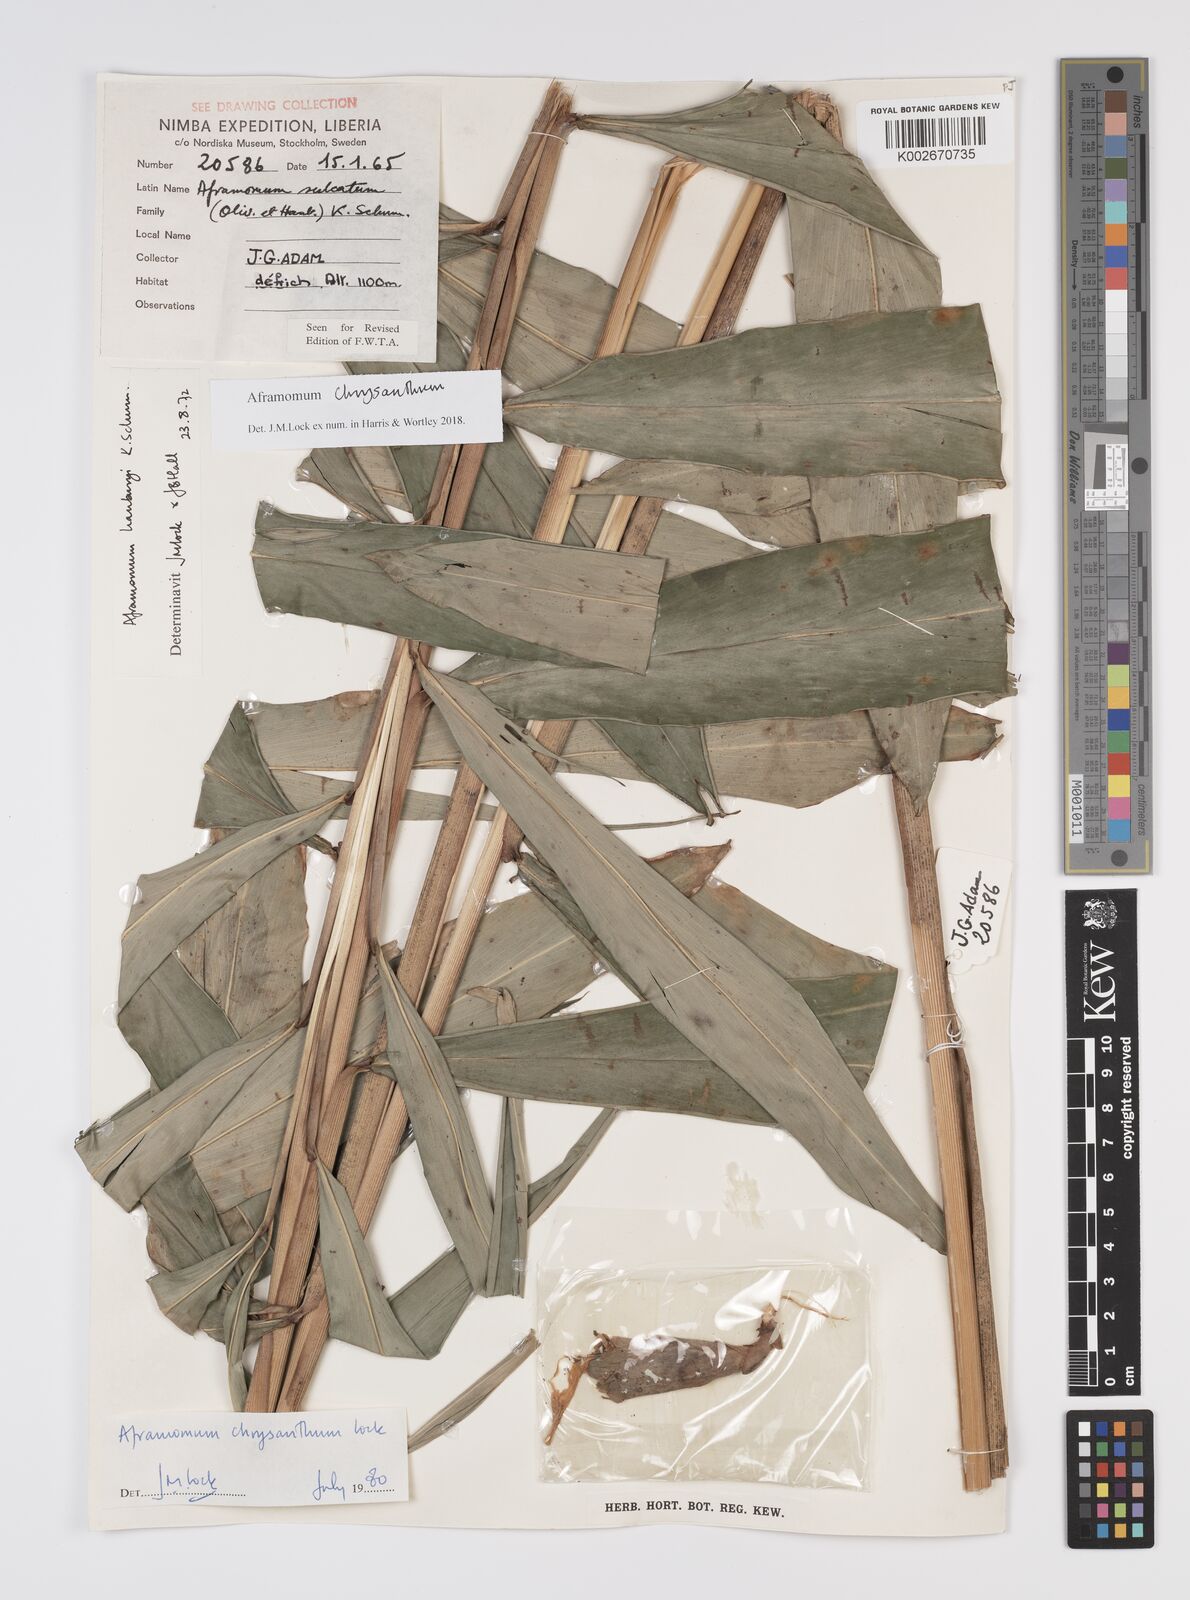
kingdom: Plantae
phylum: Tracheophyta
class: Liliopsida
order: Zingiberales
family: Zingiberaceae
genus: Aframomum
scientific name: Aframomum chrysanthum
